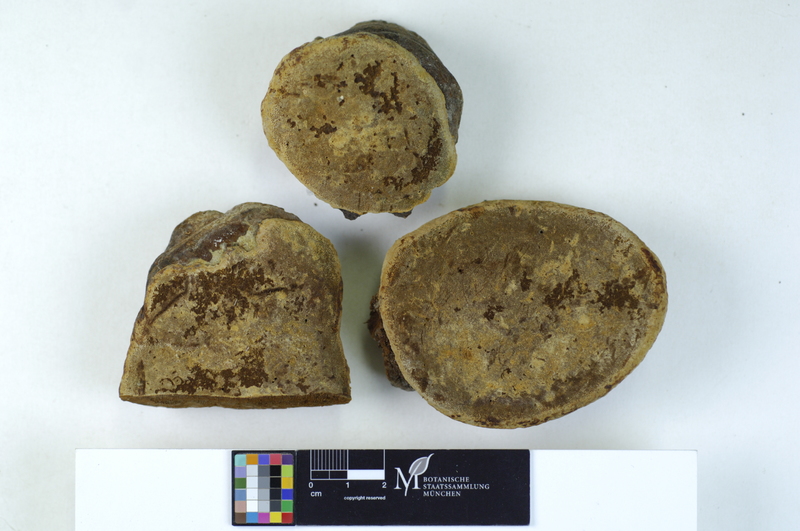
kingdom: Fungi
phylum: Basidiomycota
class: Agaricomycetes
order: Hymenochaetales
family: Hymenochaetaceae
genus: Phellinus
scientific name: Phellinus pomaceus
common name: Cushion bracket
